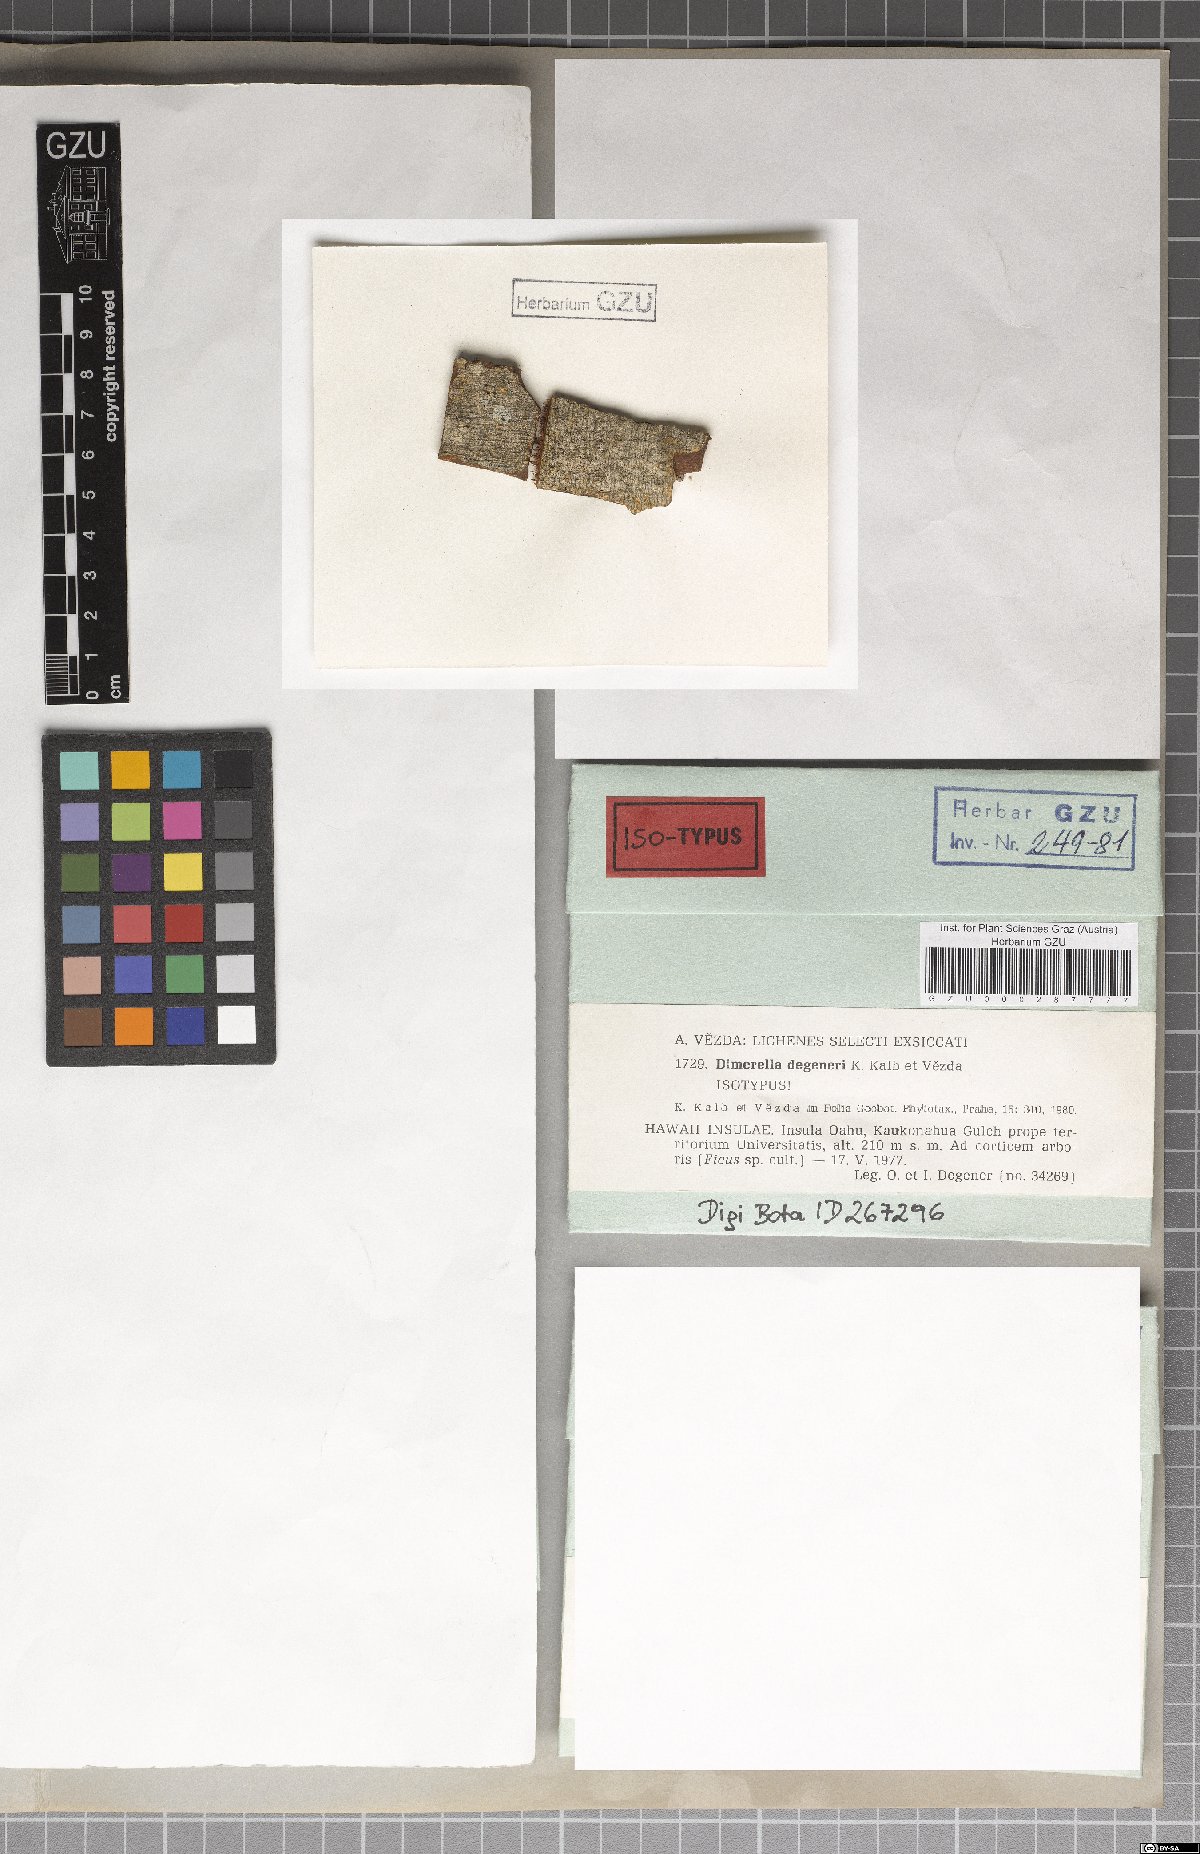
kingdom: Fungi
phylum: Ascomycota
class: Lecanoromycetes
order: Ostropales
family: Coenogoniaceae
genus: Coenogonium
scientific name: Coenogonium degeneri
